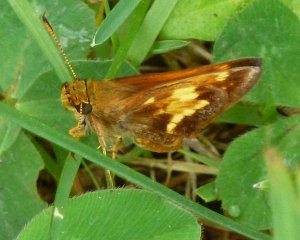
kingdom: Animalia
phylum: Arthropoda
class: Insecta
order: Lepidoptera
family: Hesperiidae
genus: Lon
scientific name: Lon hobomok
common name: Hobomok Skipper
